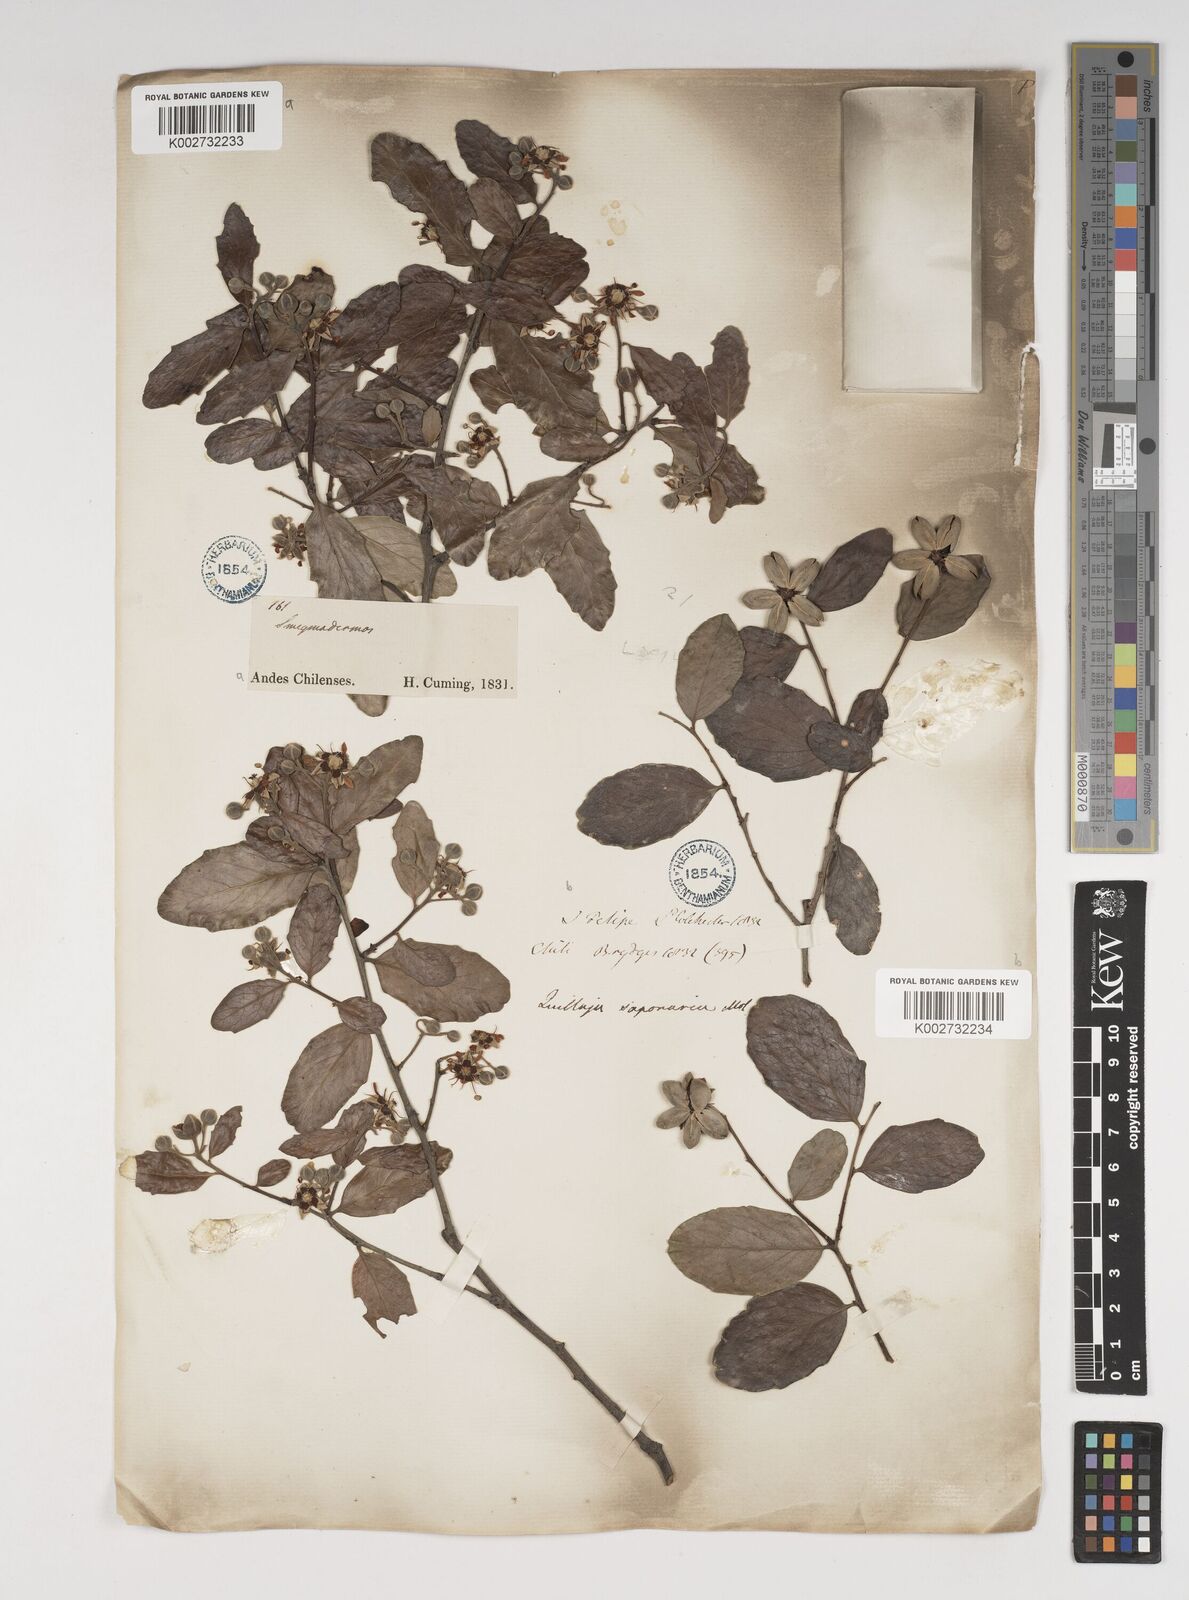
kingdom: Plantae
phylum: Tracheophyta
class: Magnoliopsida
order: Fabales
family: Quillajaceae
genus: Quillaja
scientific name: Quillaja saponaria
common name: Murillo's-bark
